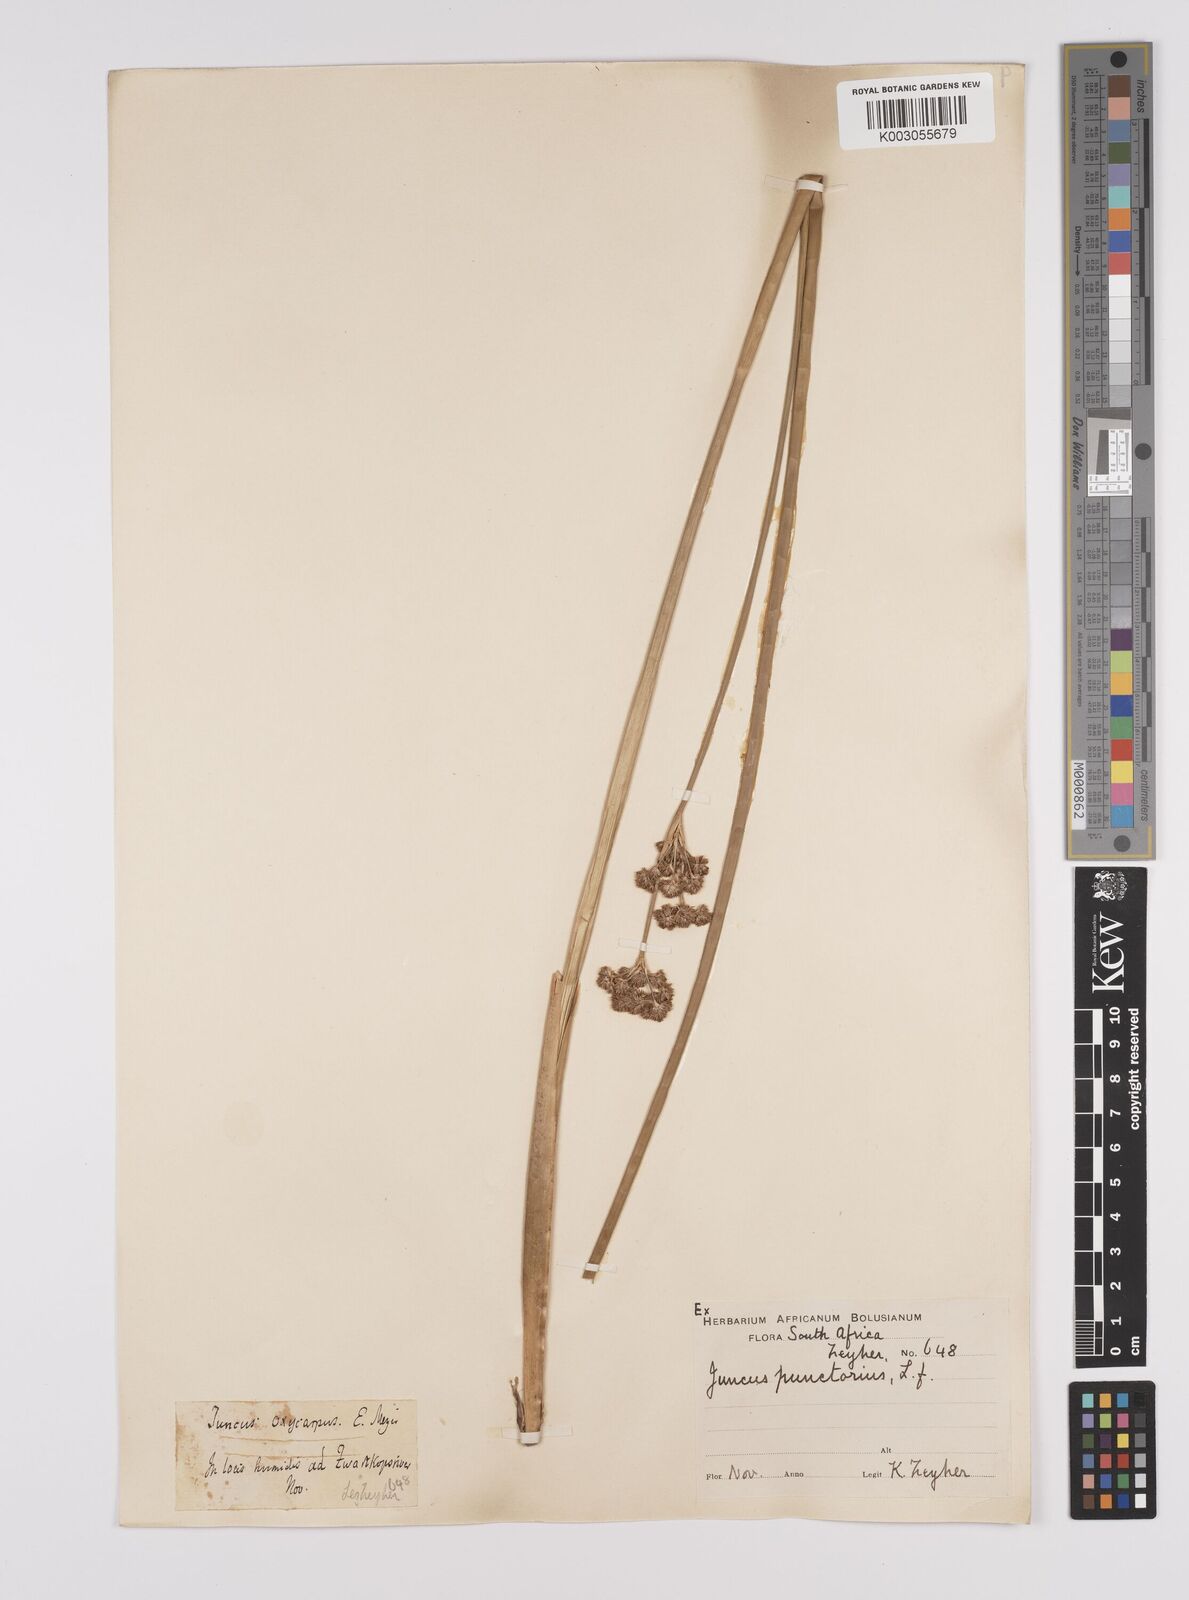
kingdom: Plantae
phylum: Tracheophyta
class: Liliopsida
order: Poales
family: Juncaceae
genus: Juncus
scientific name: Juncus punctorius
